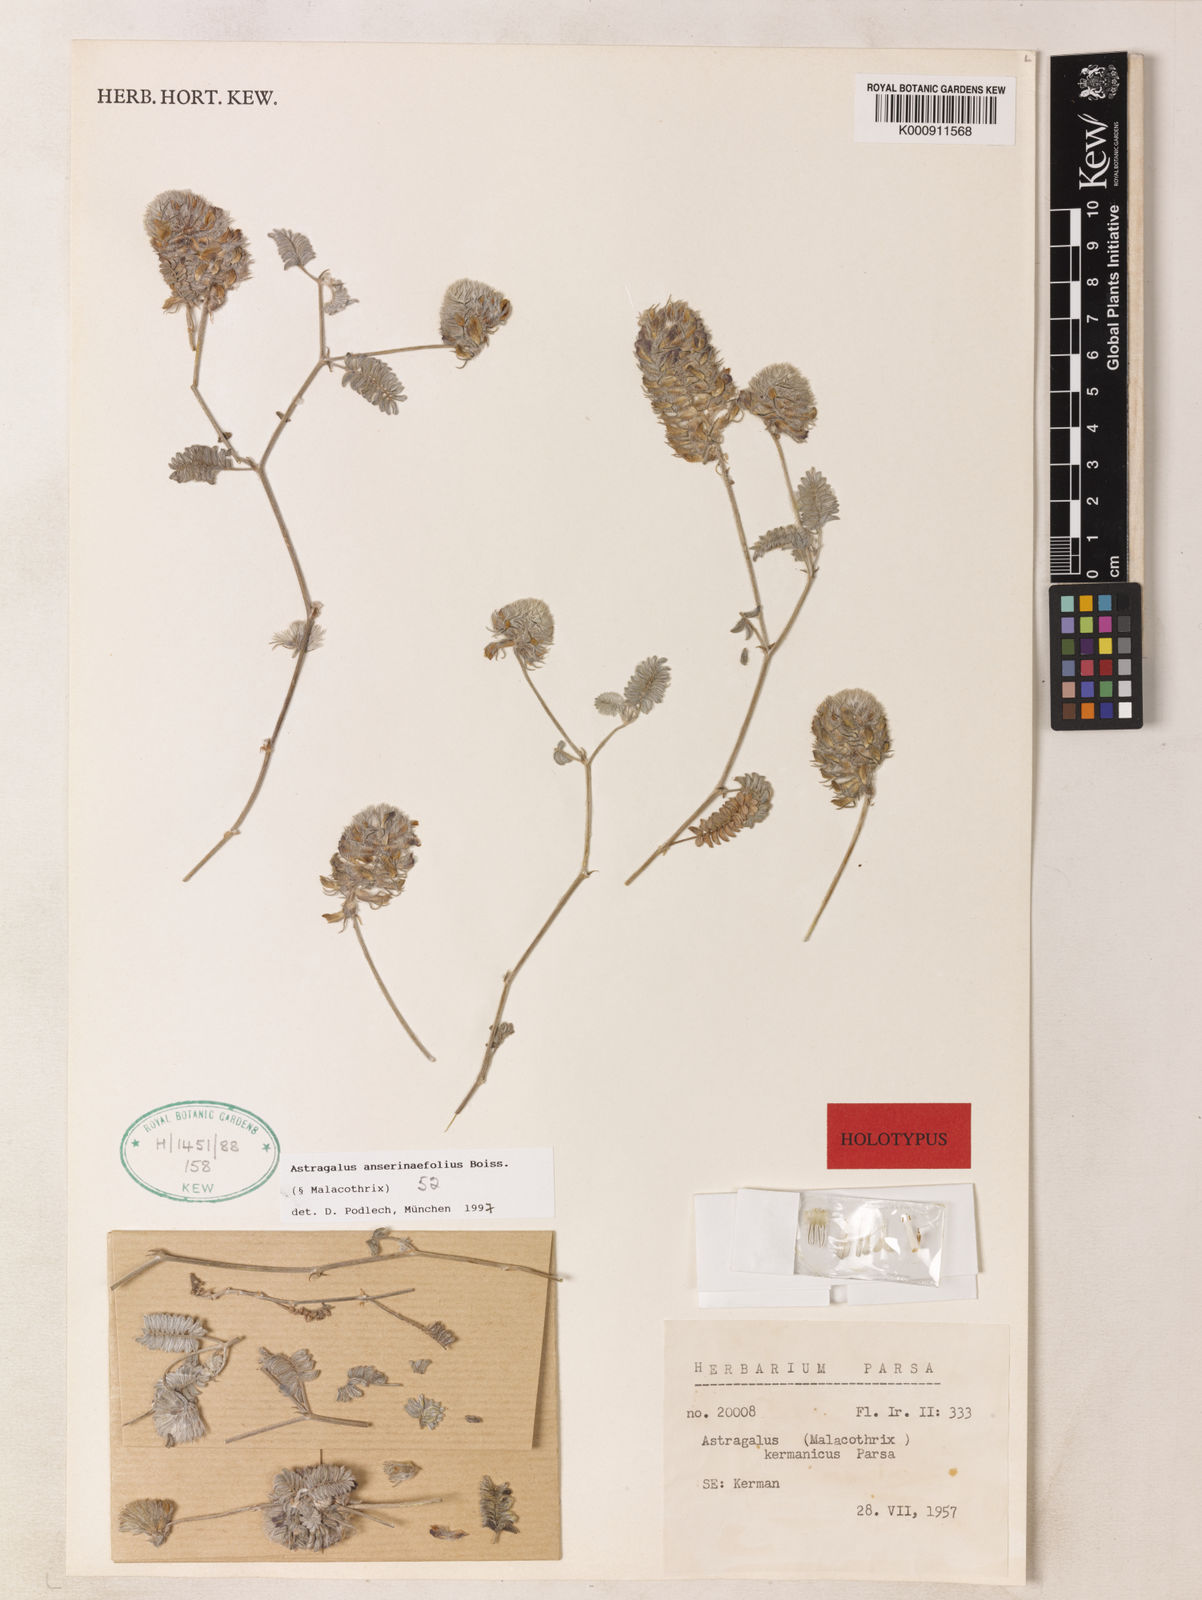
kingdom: Plantae
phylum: Tracheophyta
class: Magnoliopsida
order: Fabales
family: Fabaceae
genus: Astragalus
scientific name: Astragalus anserinifolius
